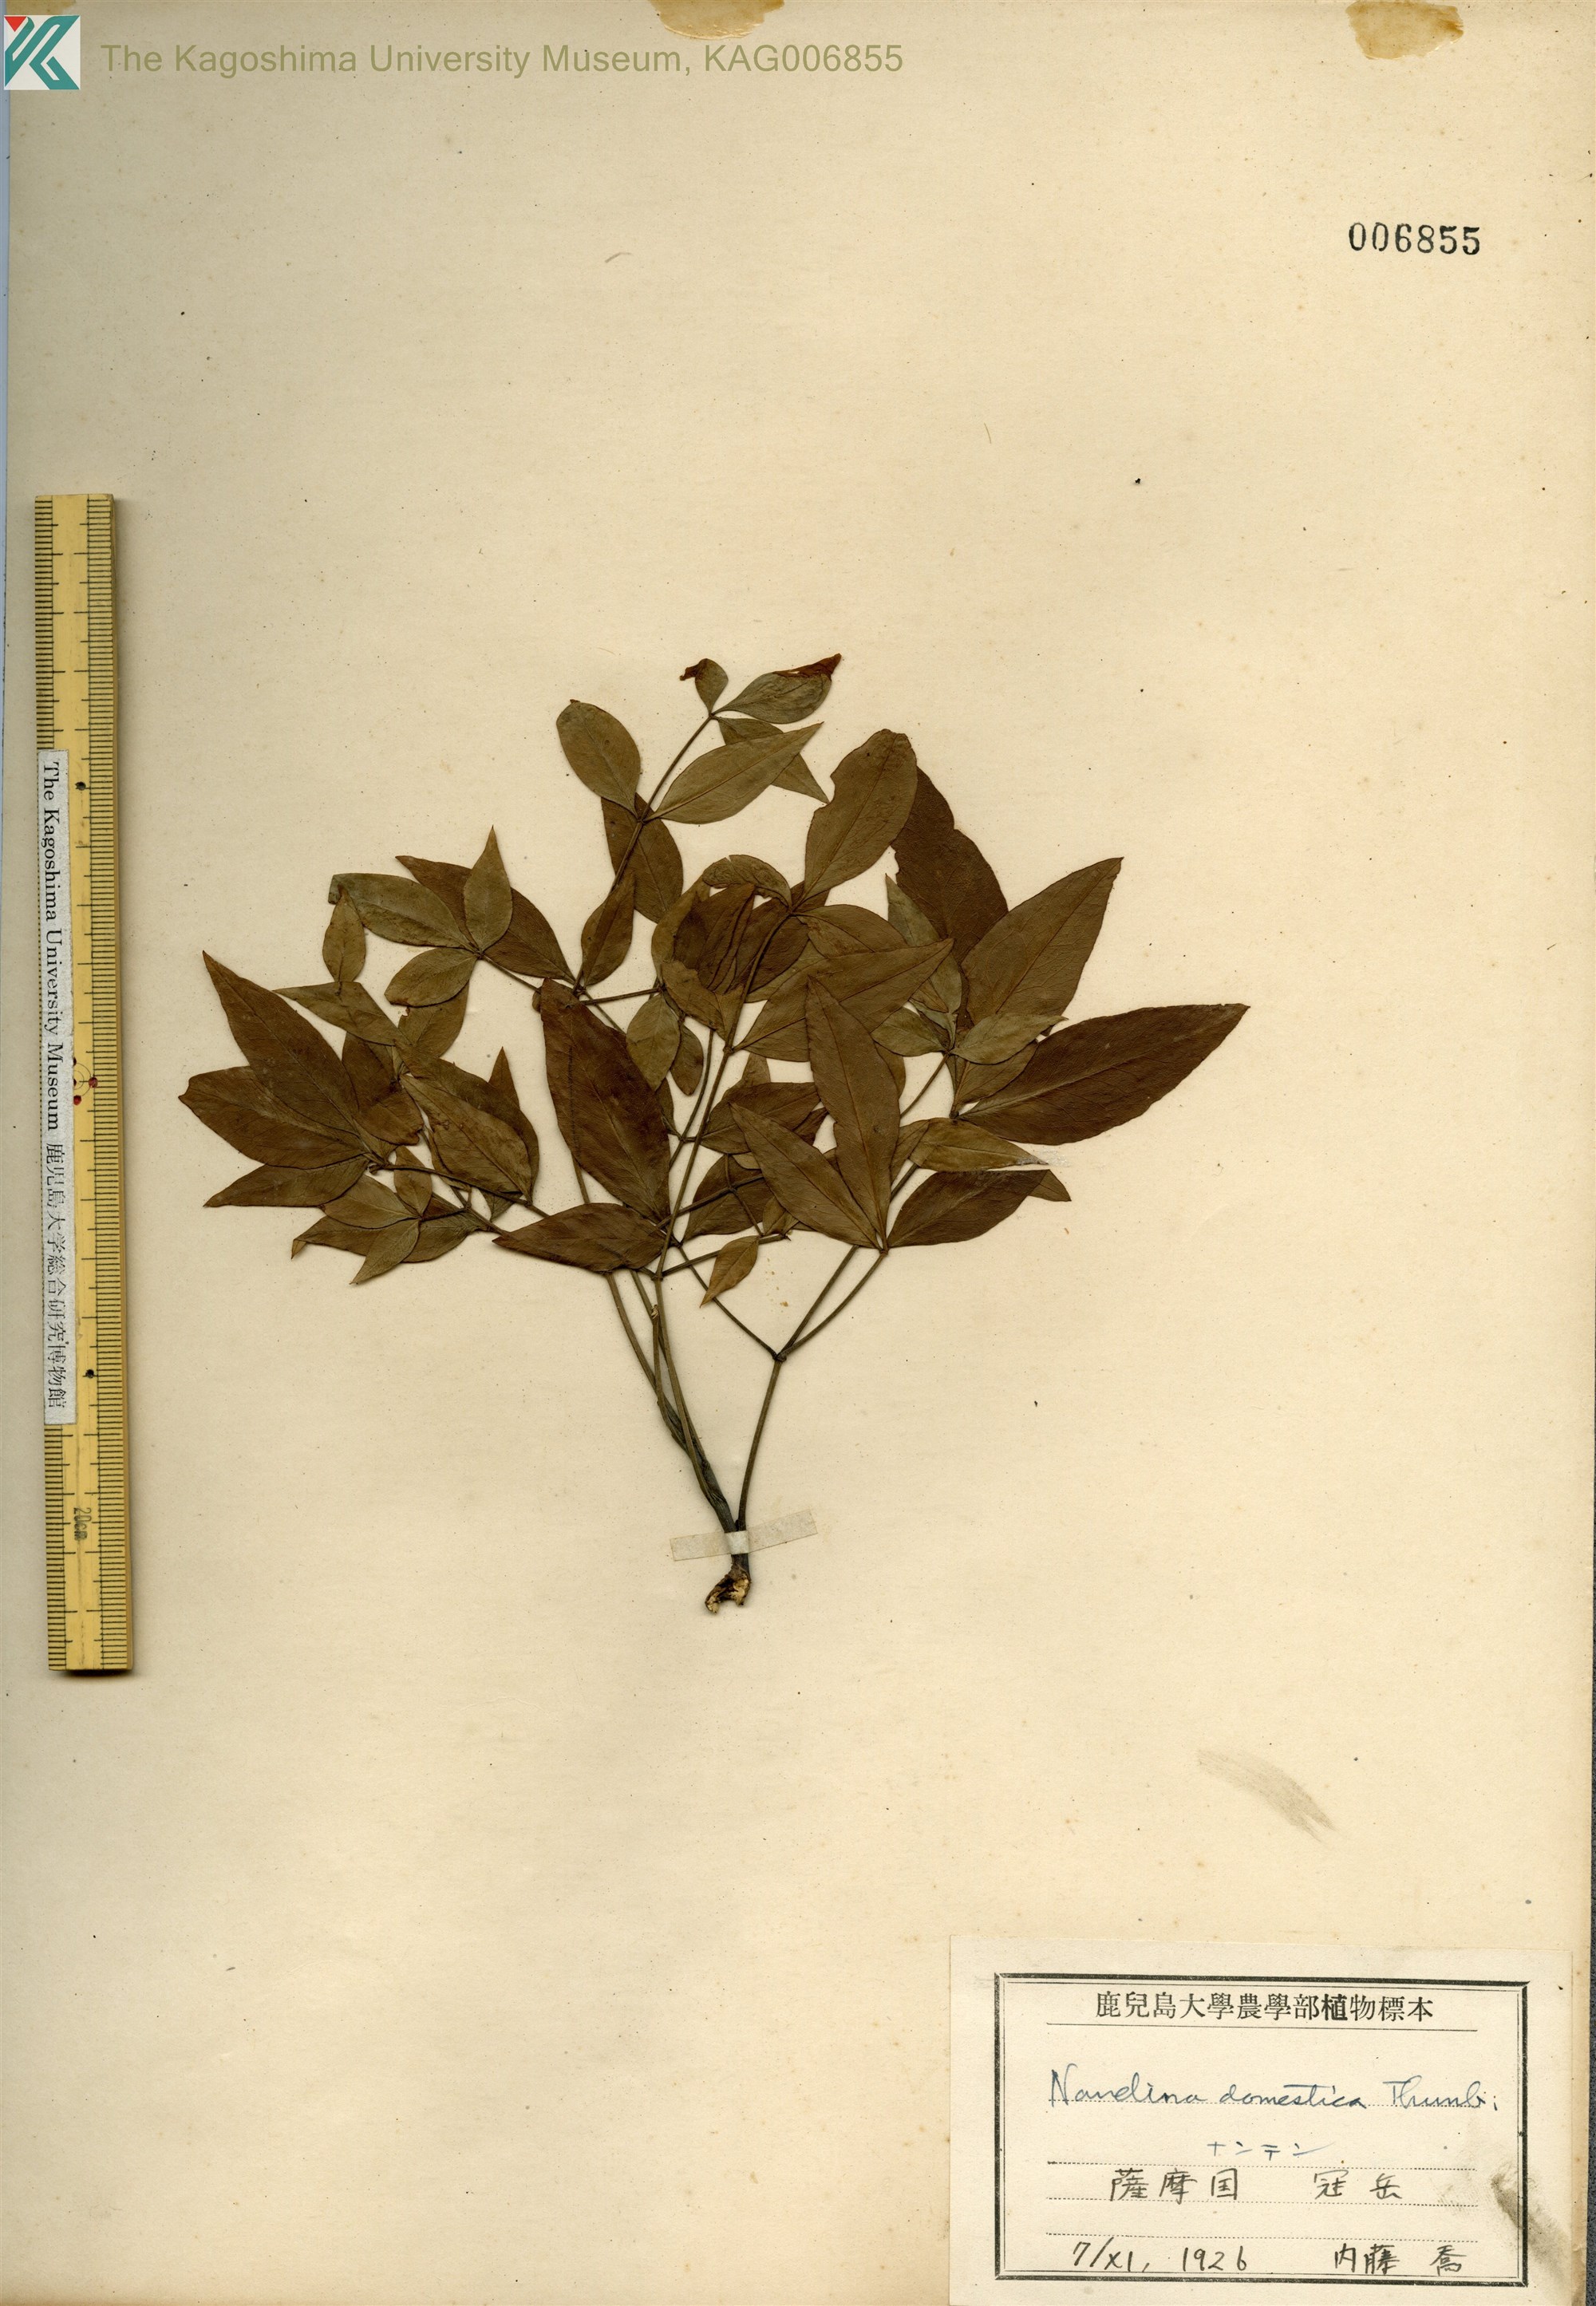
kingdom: Plantae
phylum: Tracheophyta
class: Magnoliopsida
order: Ranunculales
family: Berberidaceae
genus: Nandina
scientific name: Nandina domestica
